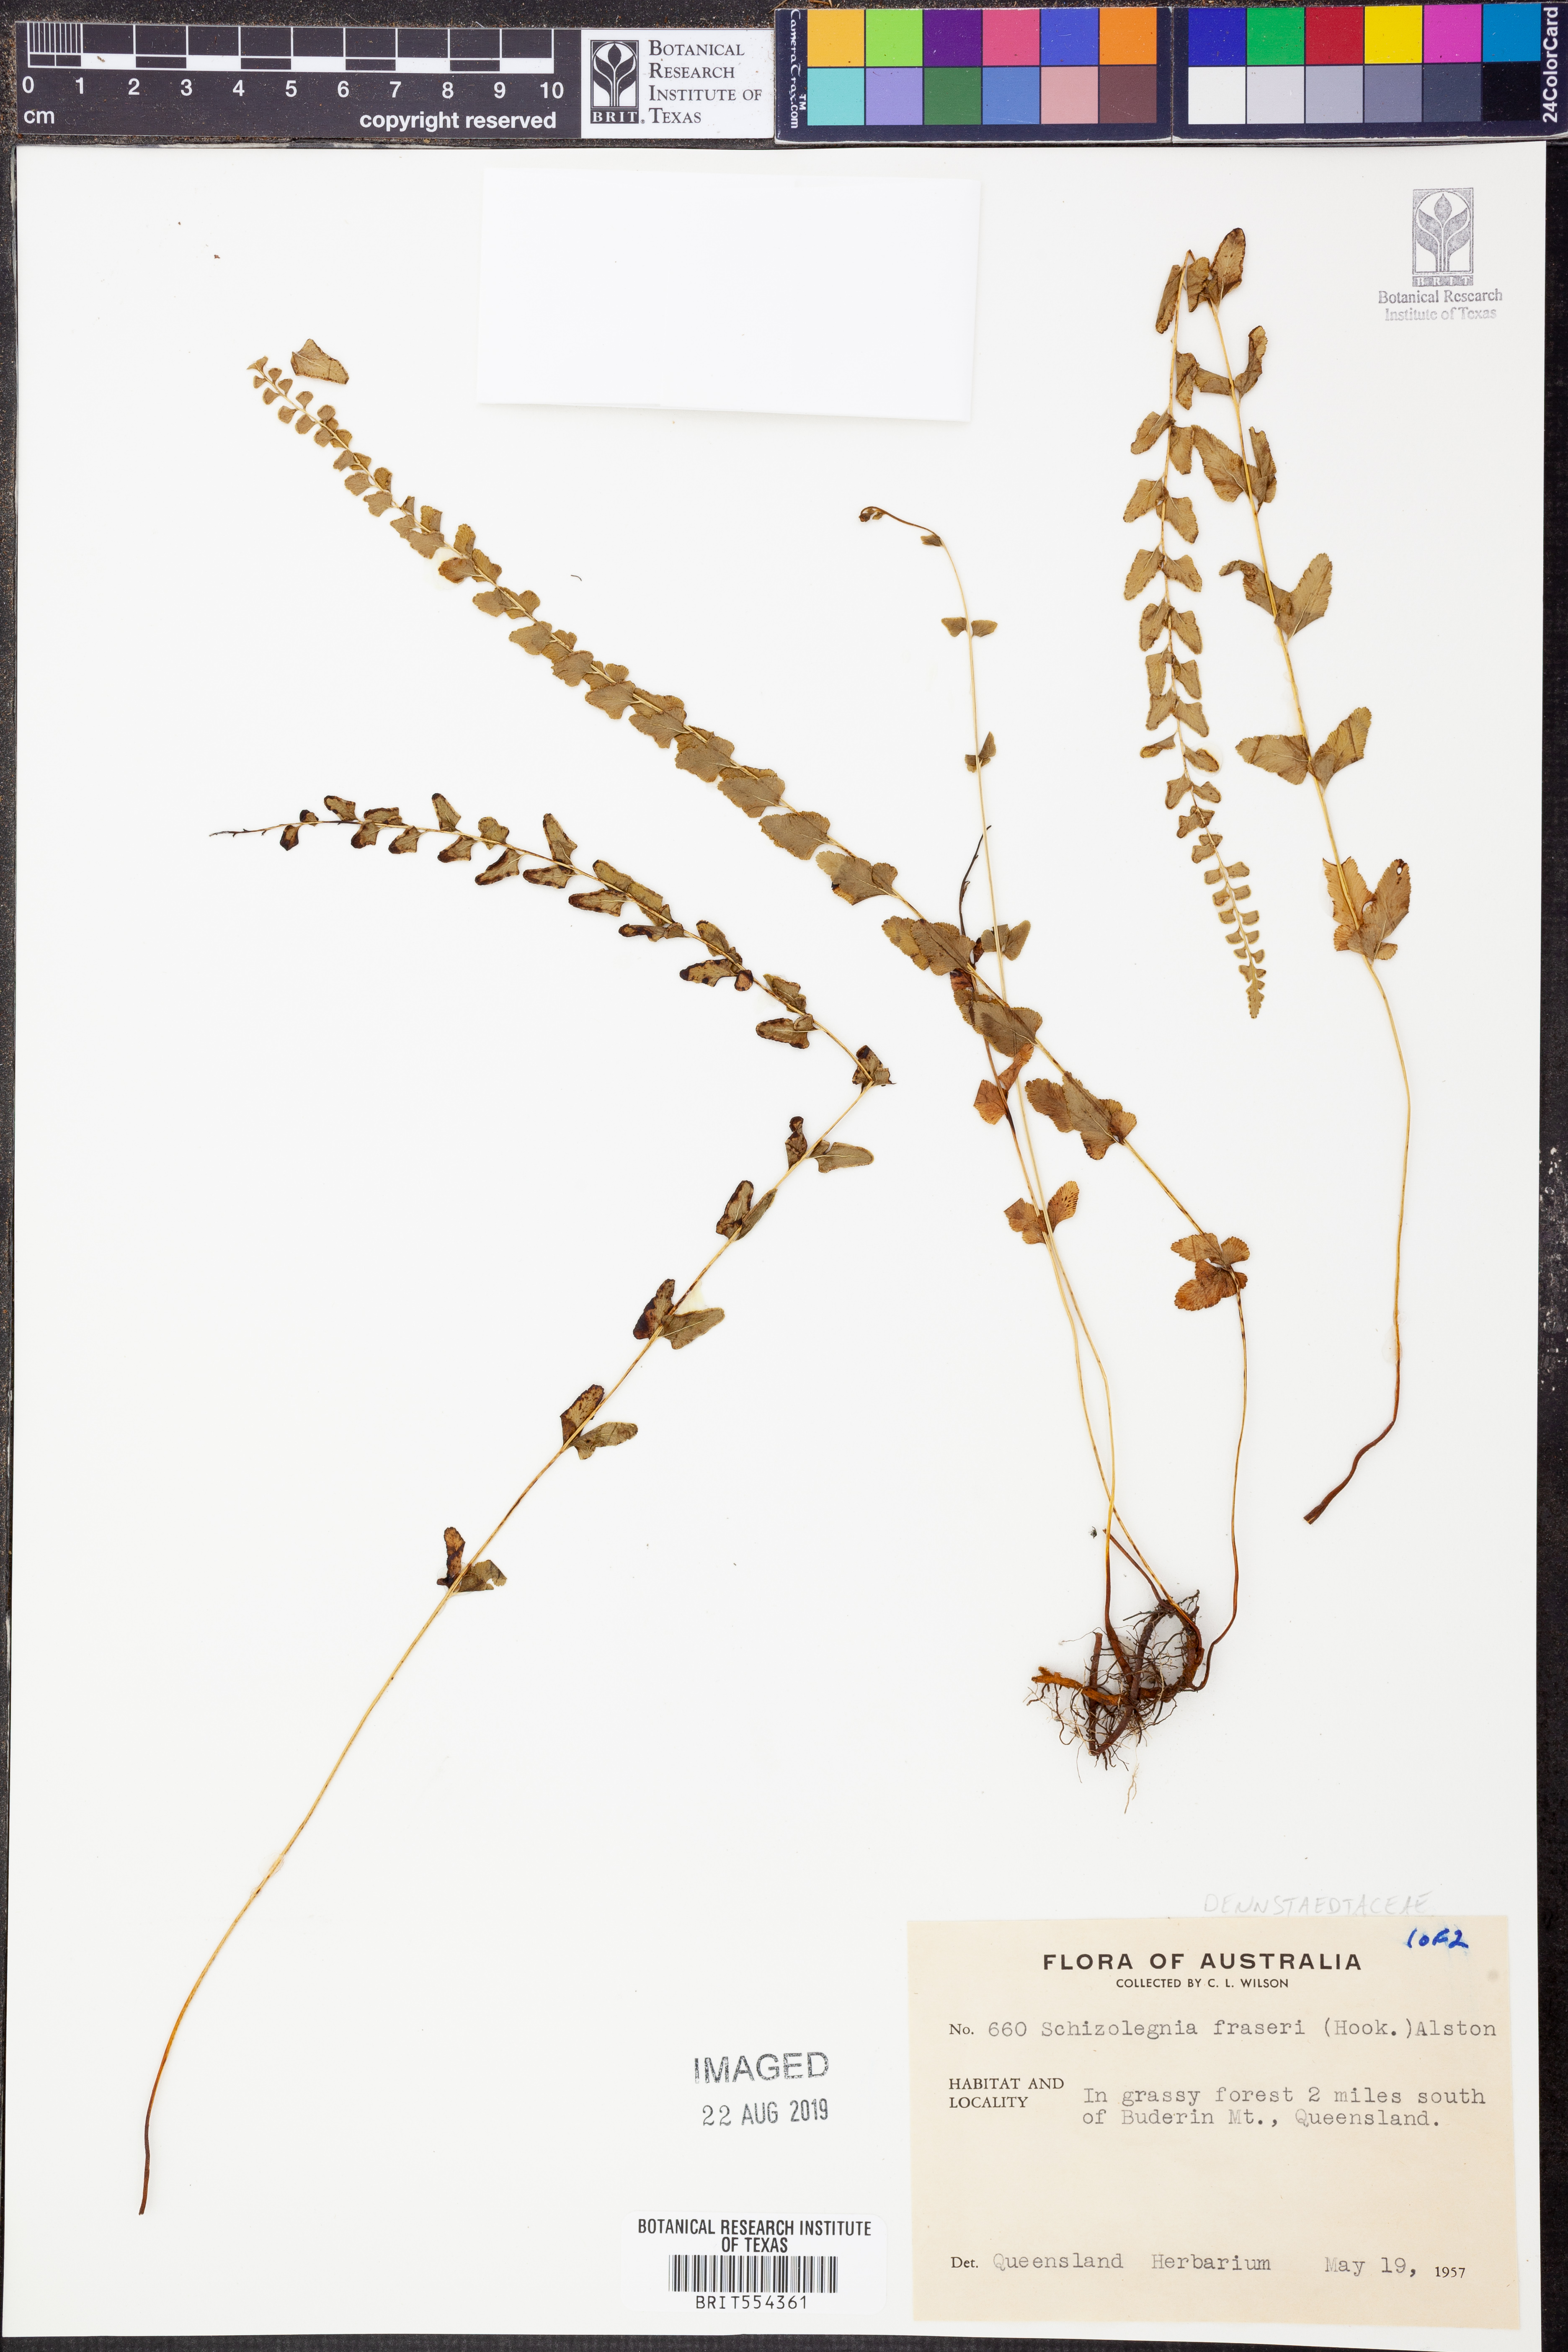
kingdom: Plantae
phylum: Tracheophyta
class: Polypodiopsida
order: Polypodiales
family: Lindsaeaceae
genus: Lindsaea
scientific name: Lindsaea fraseri
